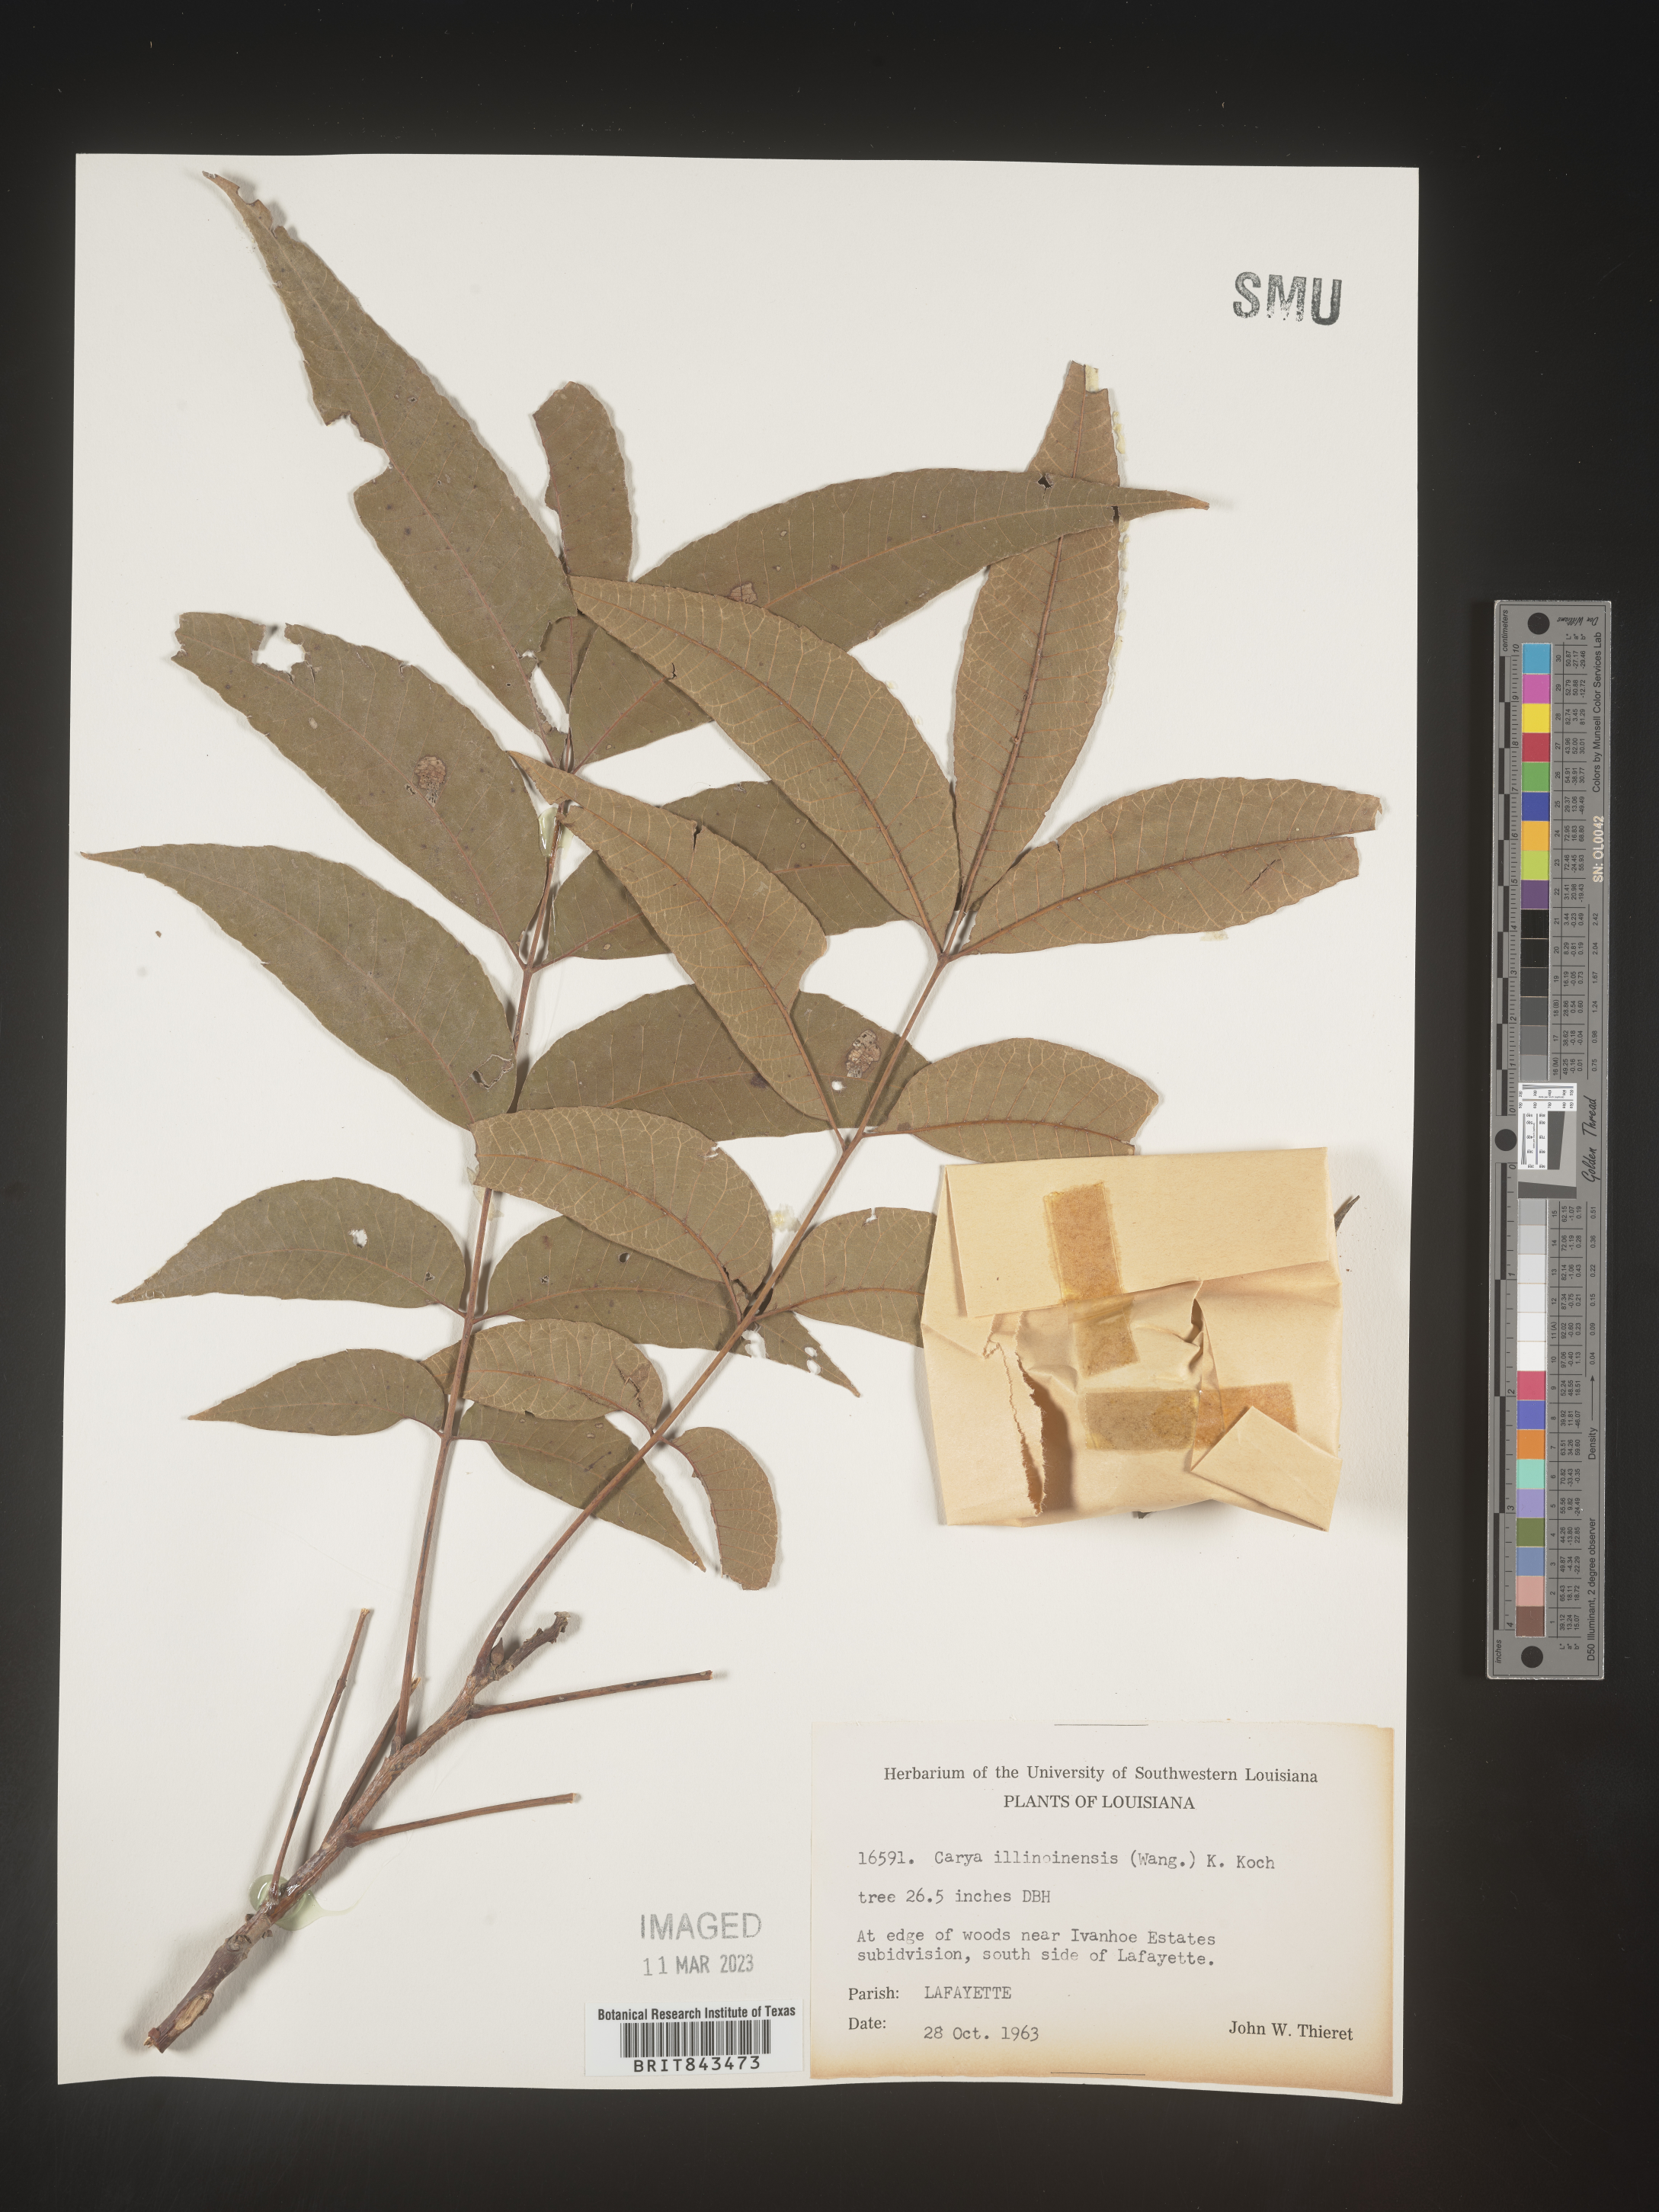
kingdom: Plantae
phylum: Tracheophyta
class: Magnoliopsida
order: Fagales
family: Juglandaceae
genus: Carya
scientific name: Carya illinoinensis
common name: Pecan
